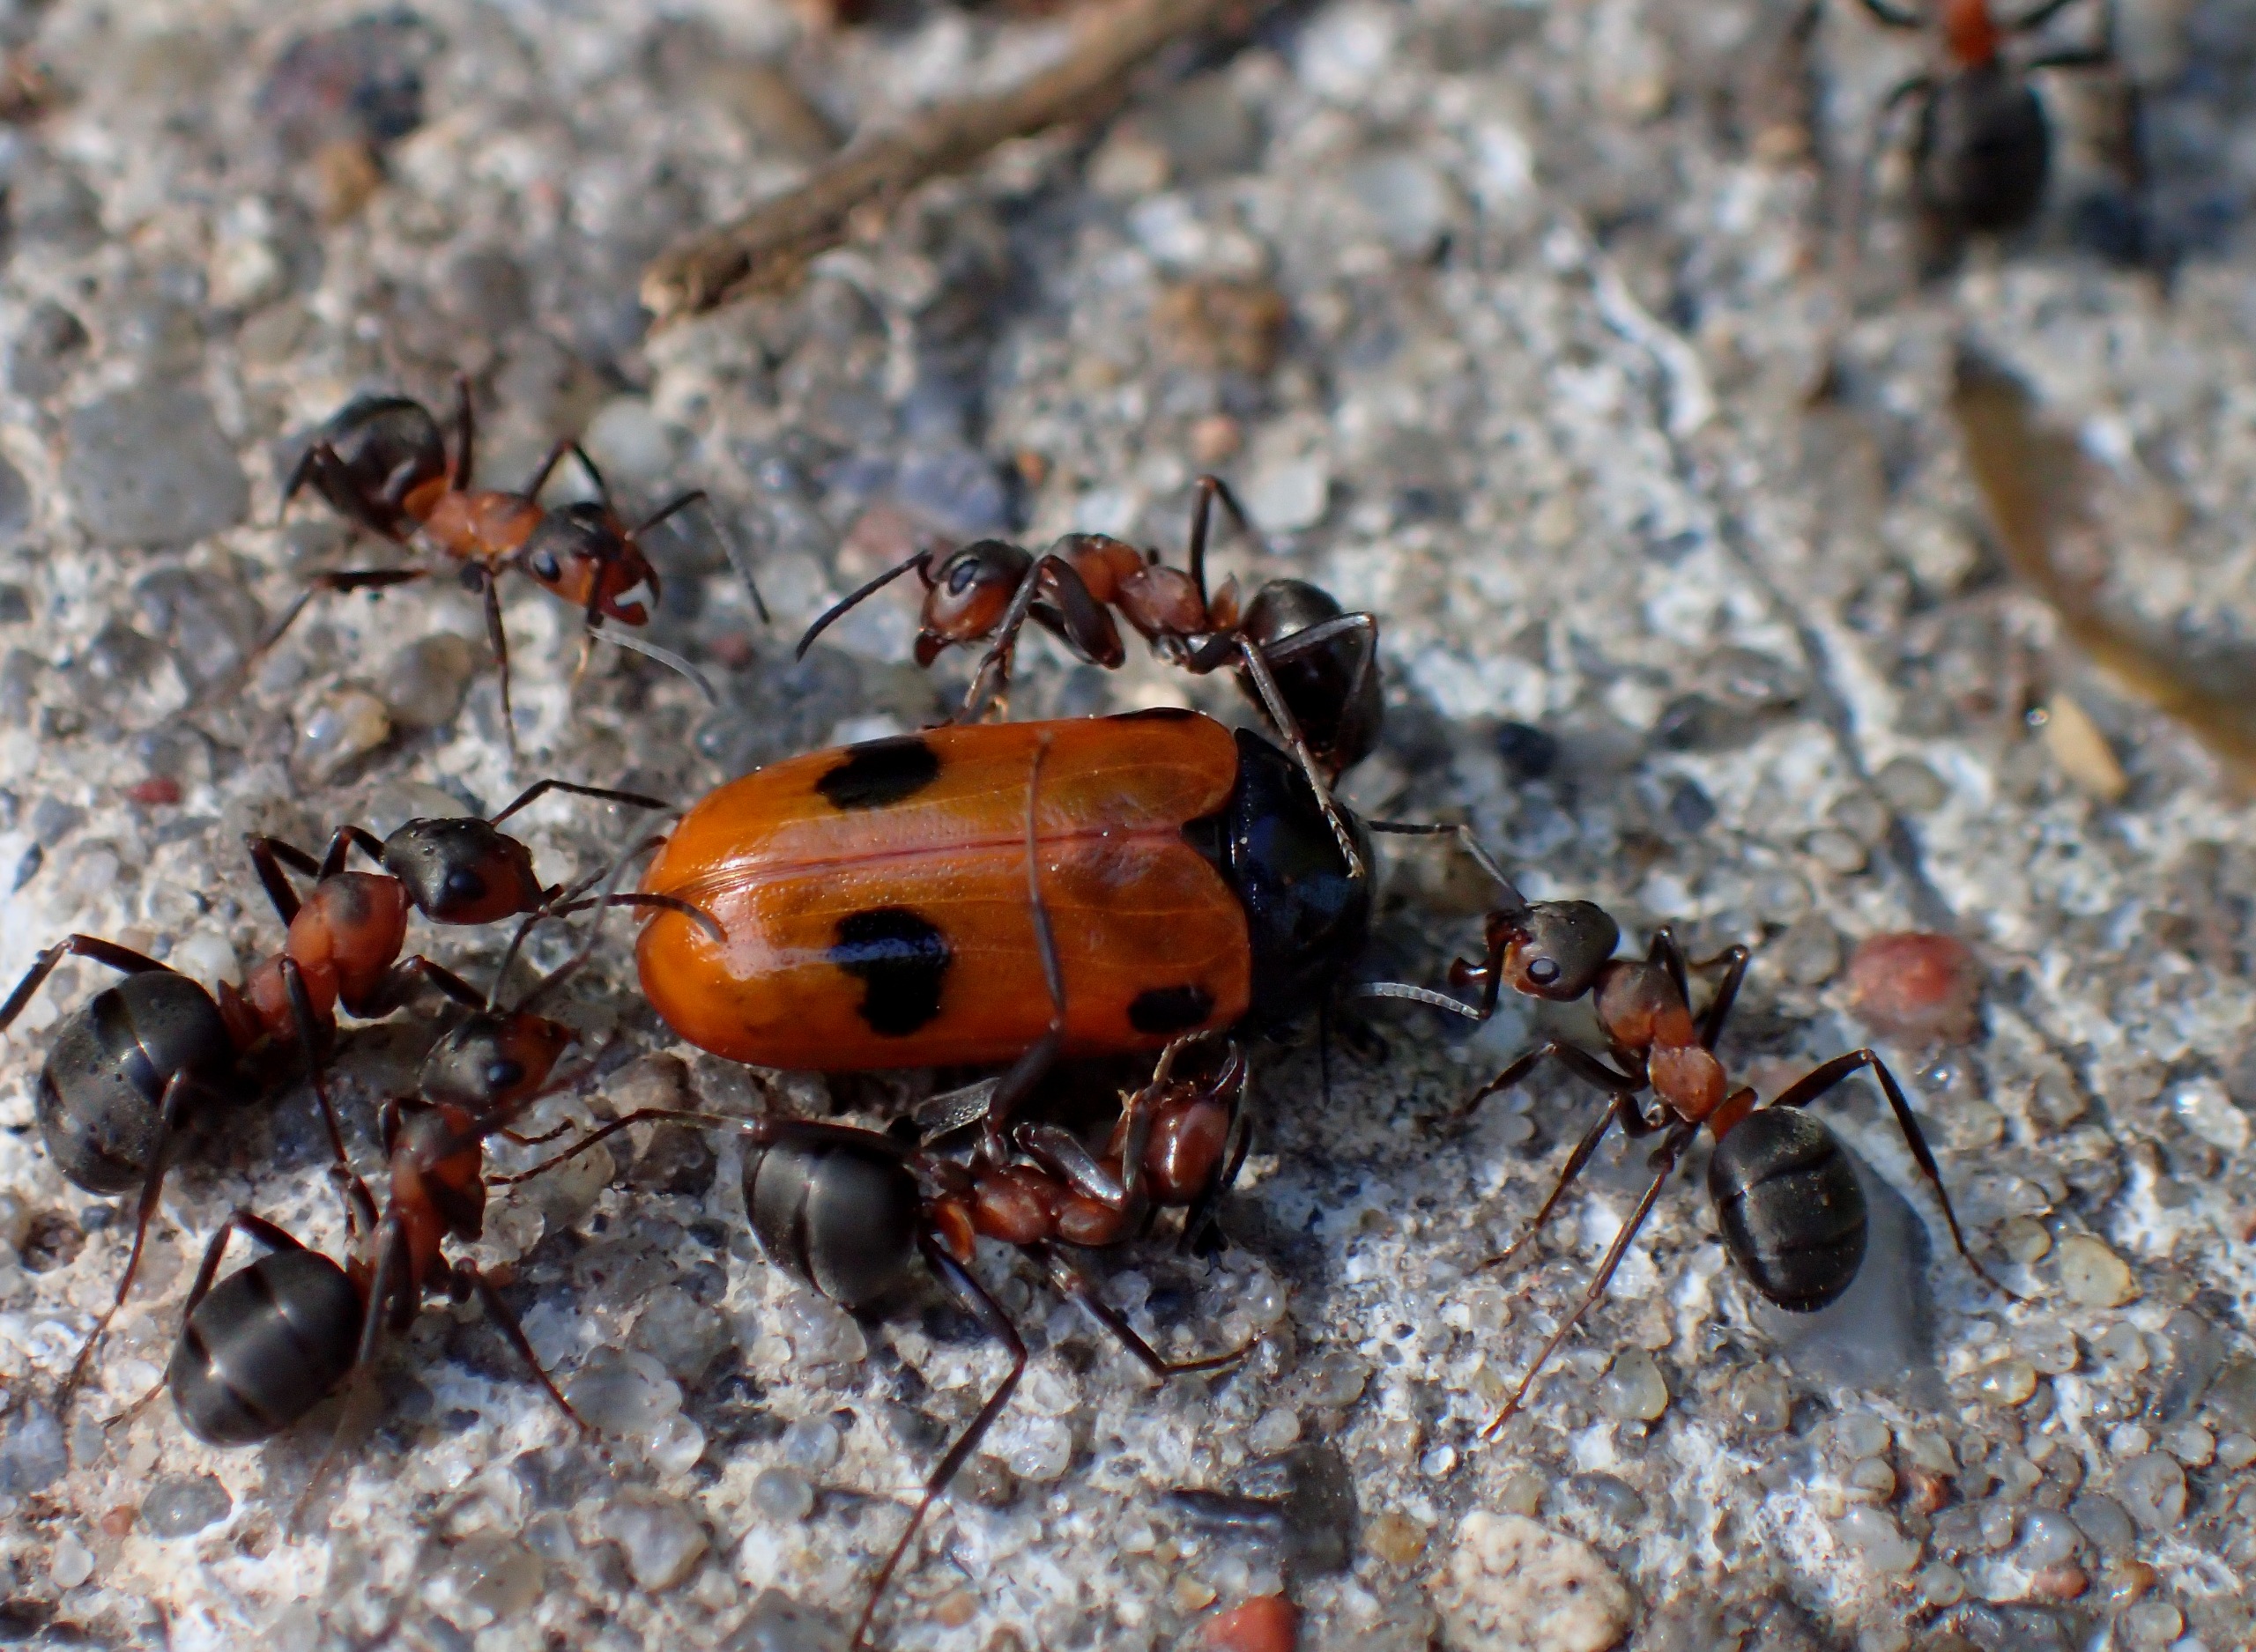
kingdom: Animalia
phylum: Arthropoda
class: Insecta
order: Coleoptera
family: Chrysomelidae
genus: Clytra
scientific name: Clytra quadripunctata
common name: Myrebladbille
